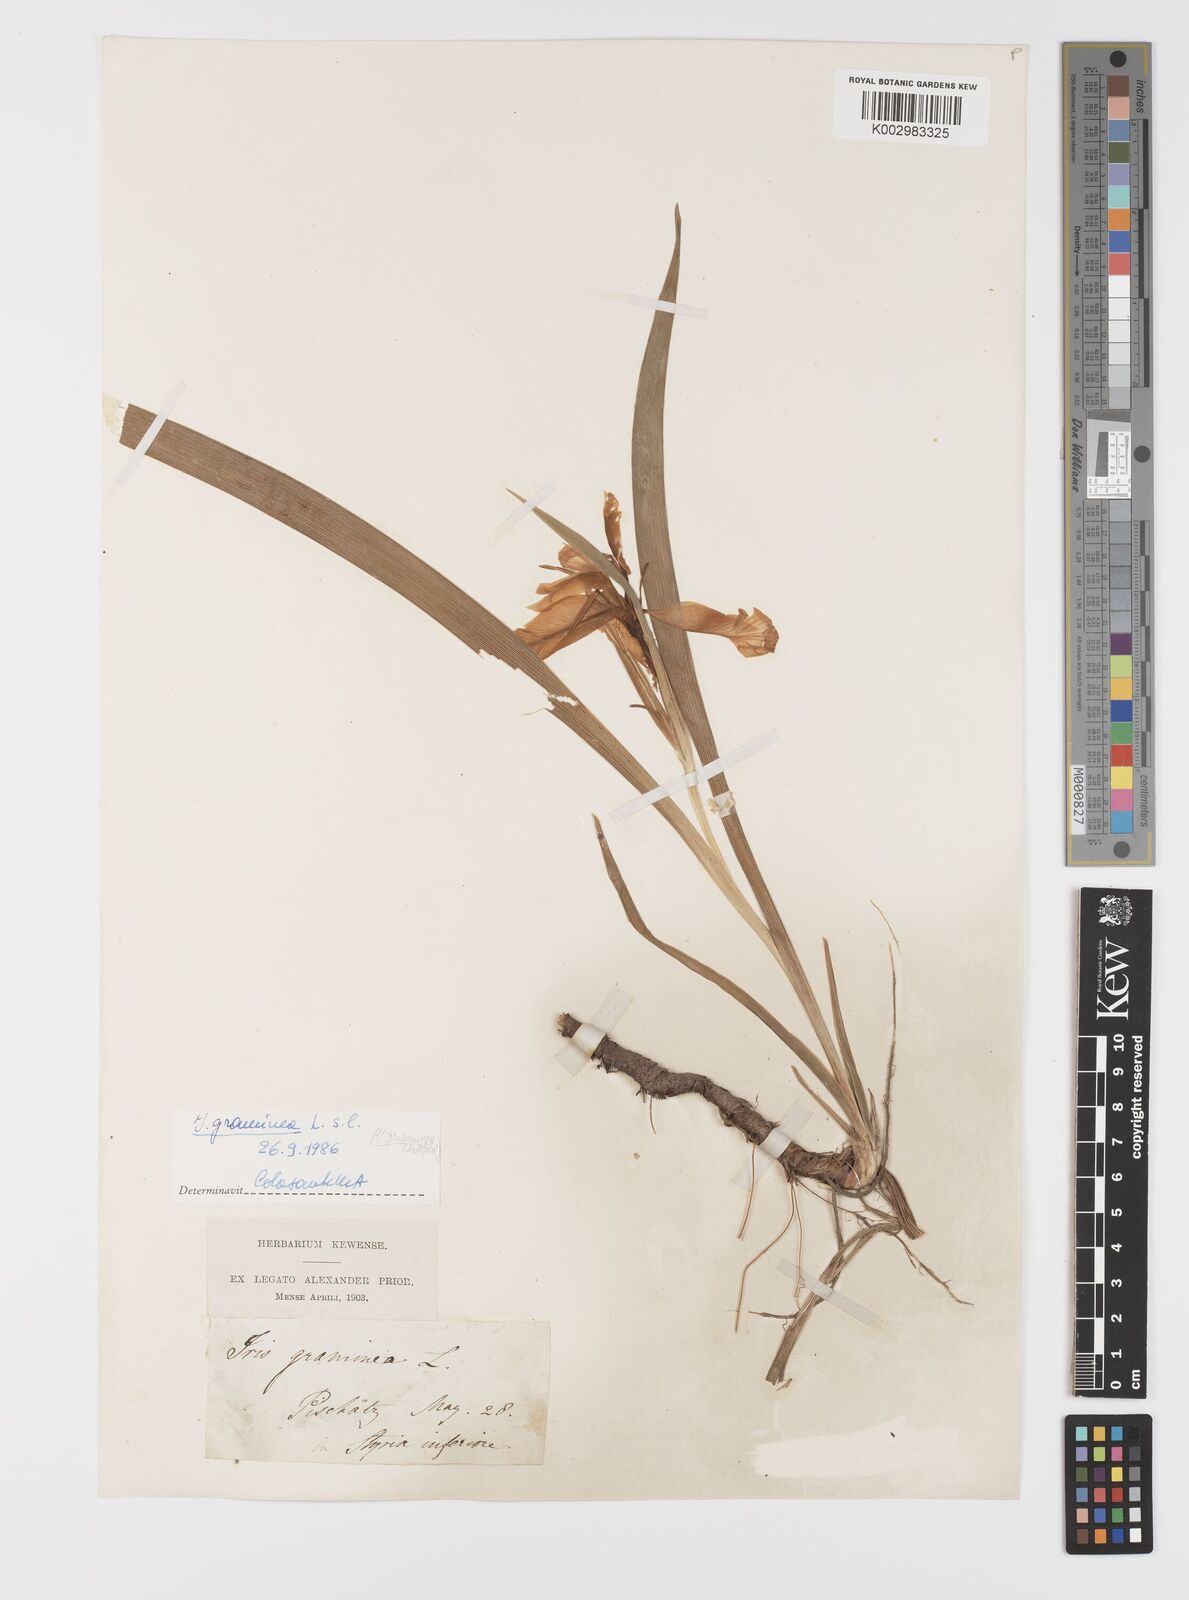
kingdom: Plantae
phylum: Tracheophyta
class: Liliopsida
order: Asparagales
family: Iridaceae
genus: Iris
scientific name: Iris graminea
